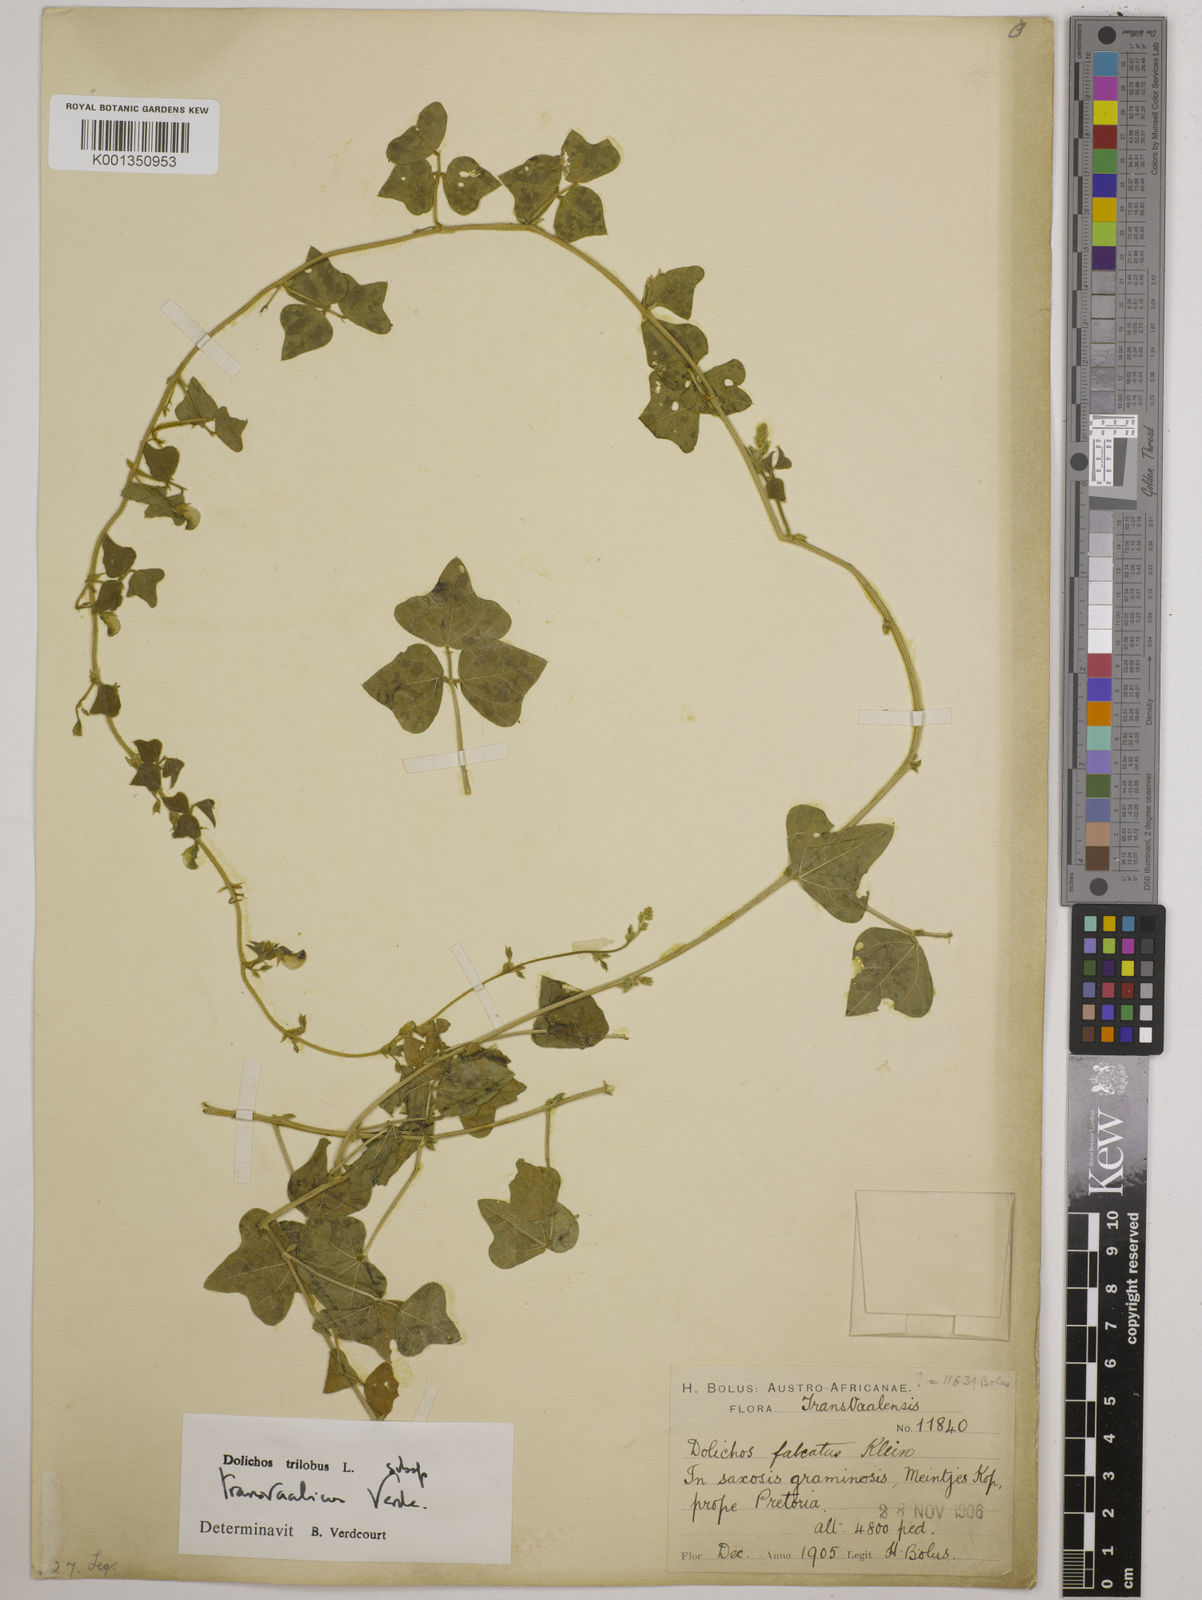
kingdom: Plantae
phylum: Tracheophyta
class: Magnoliopsida
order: Fabales
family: Fabaceae
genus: Dolichos
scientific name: Dolichos
